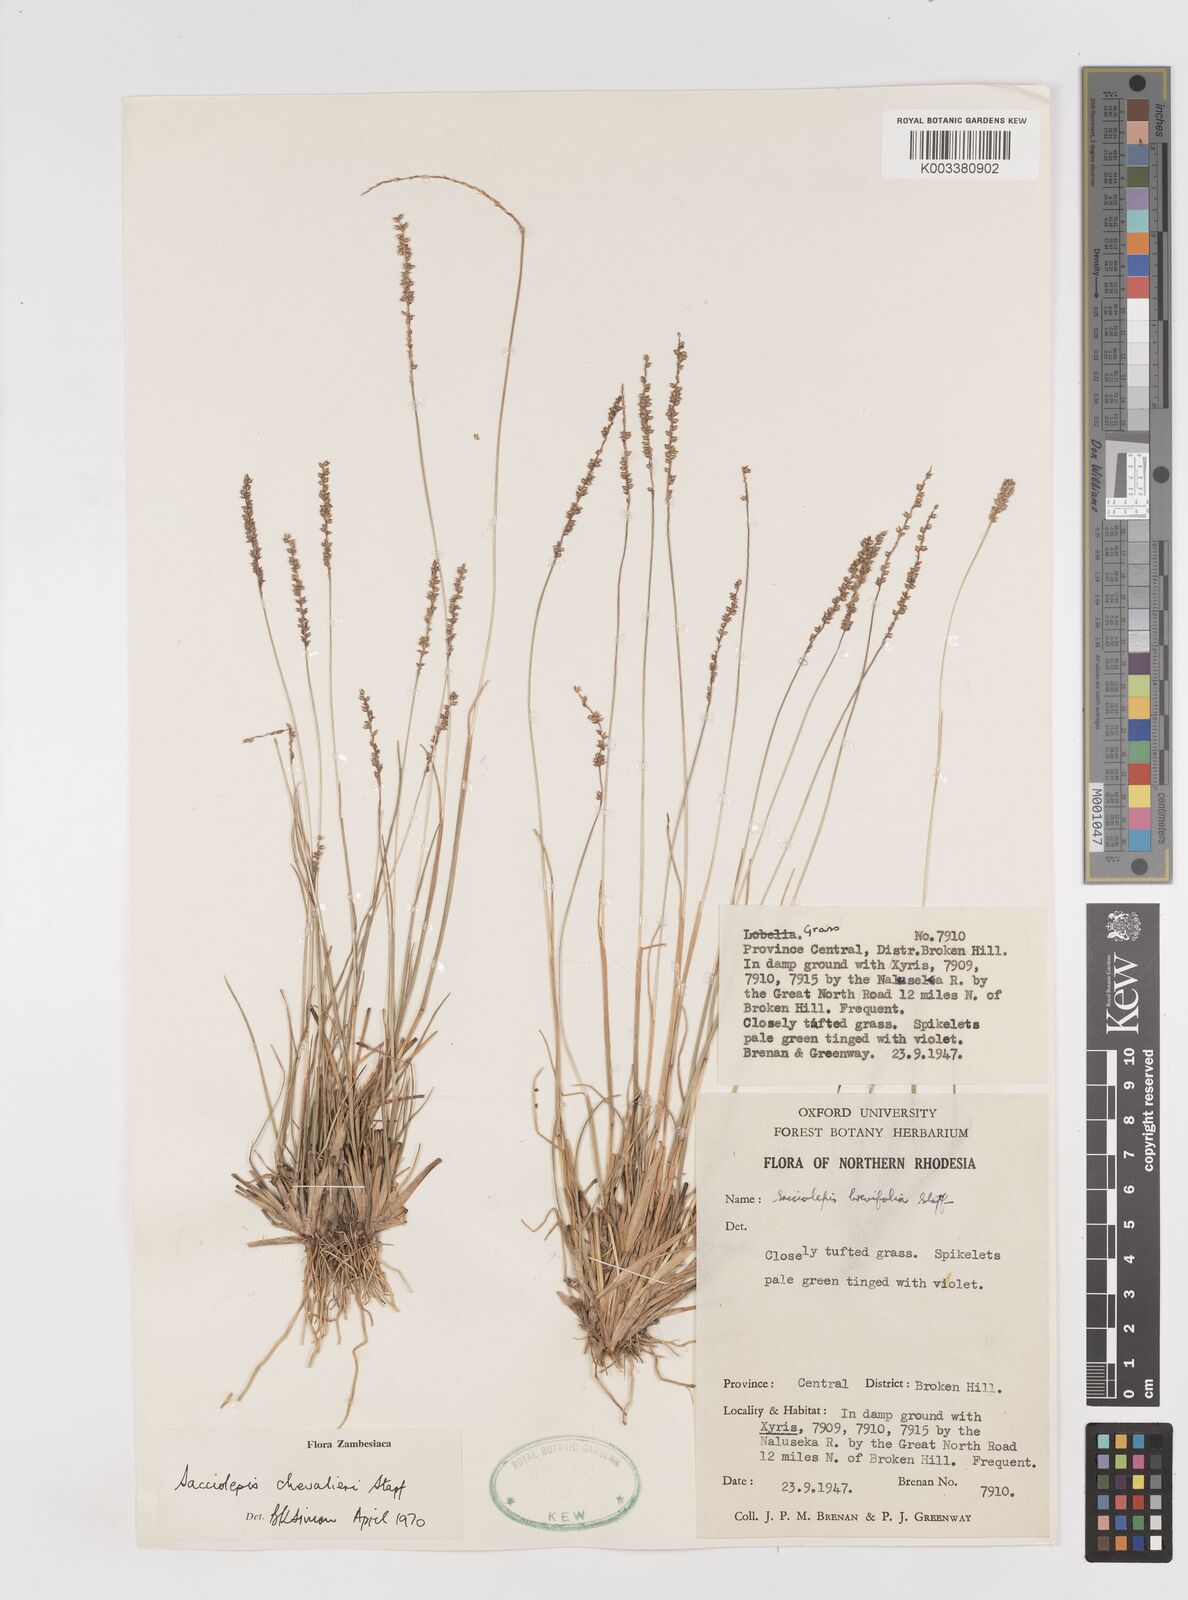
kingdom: Plantae
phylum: Tracheophyta
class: Liliopsida
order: Poales
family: Poaceae
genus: Sacciolepis
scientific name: Sacciolepis chevalieri
